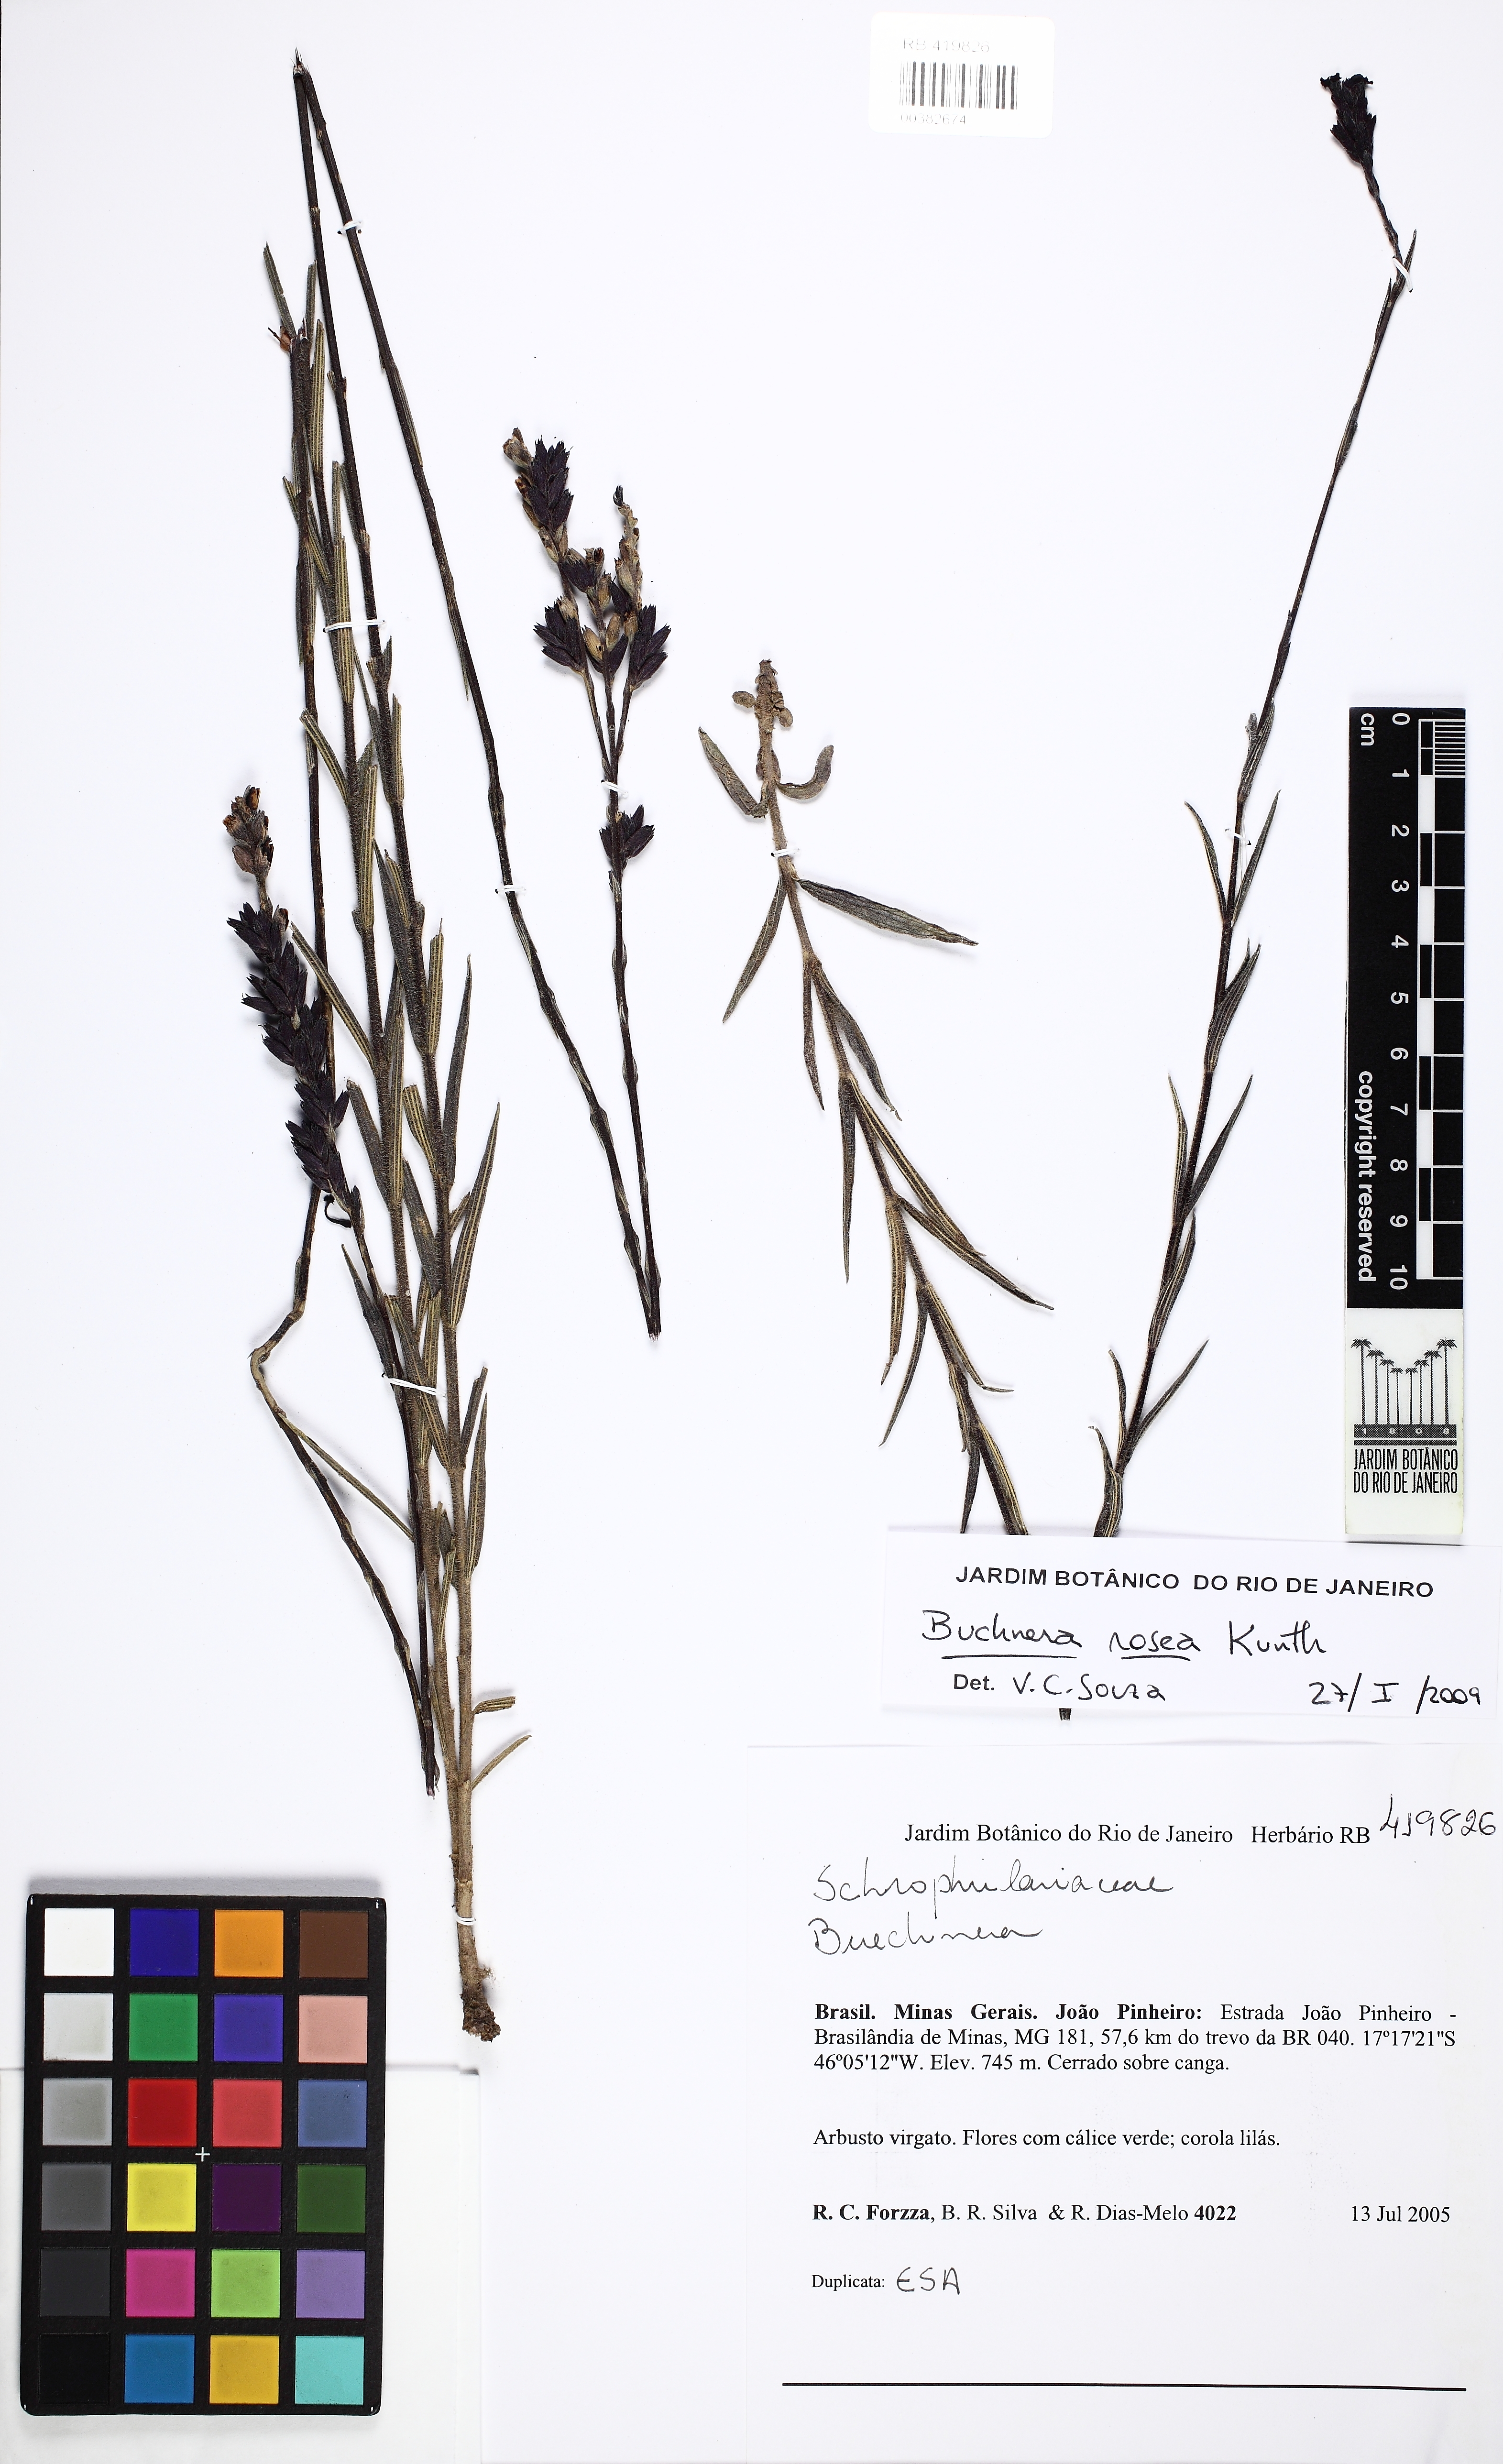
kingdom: Plantae
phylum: Tracheophyta
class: Magnoliopsida
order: Lamiales
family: Orobanchaceae
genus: Buchnera
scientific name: Buchnera rosea
